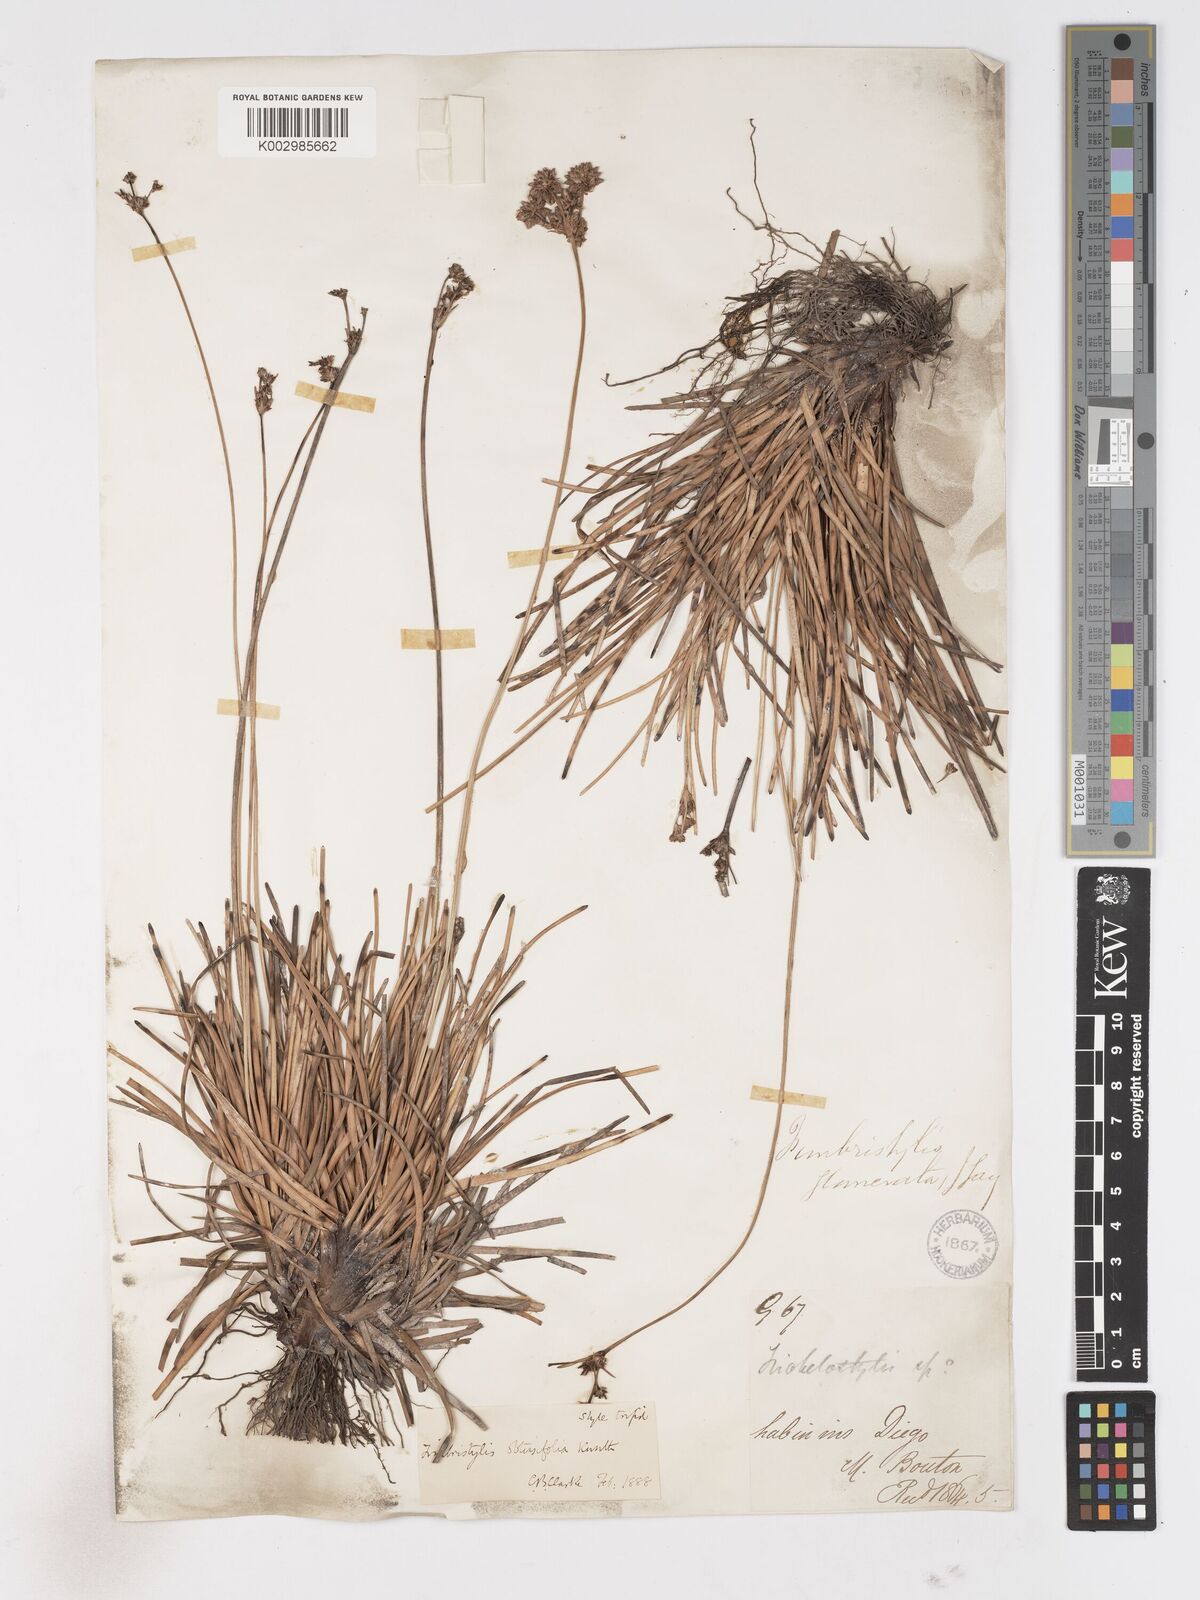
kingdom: Plantae
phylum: Tracheophyta
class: Liliopsida
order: Poales
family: Cyperaceae
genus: Fimbristylis
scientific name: Fimbristylis cymosa
